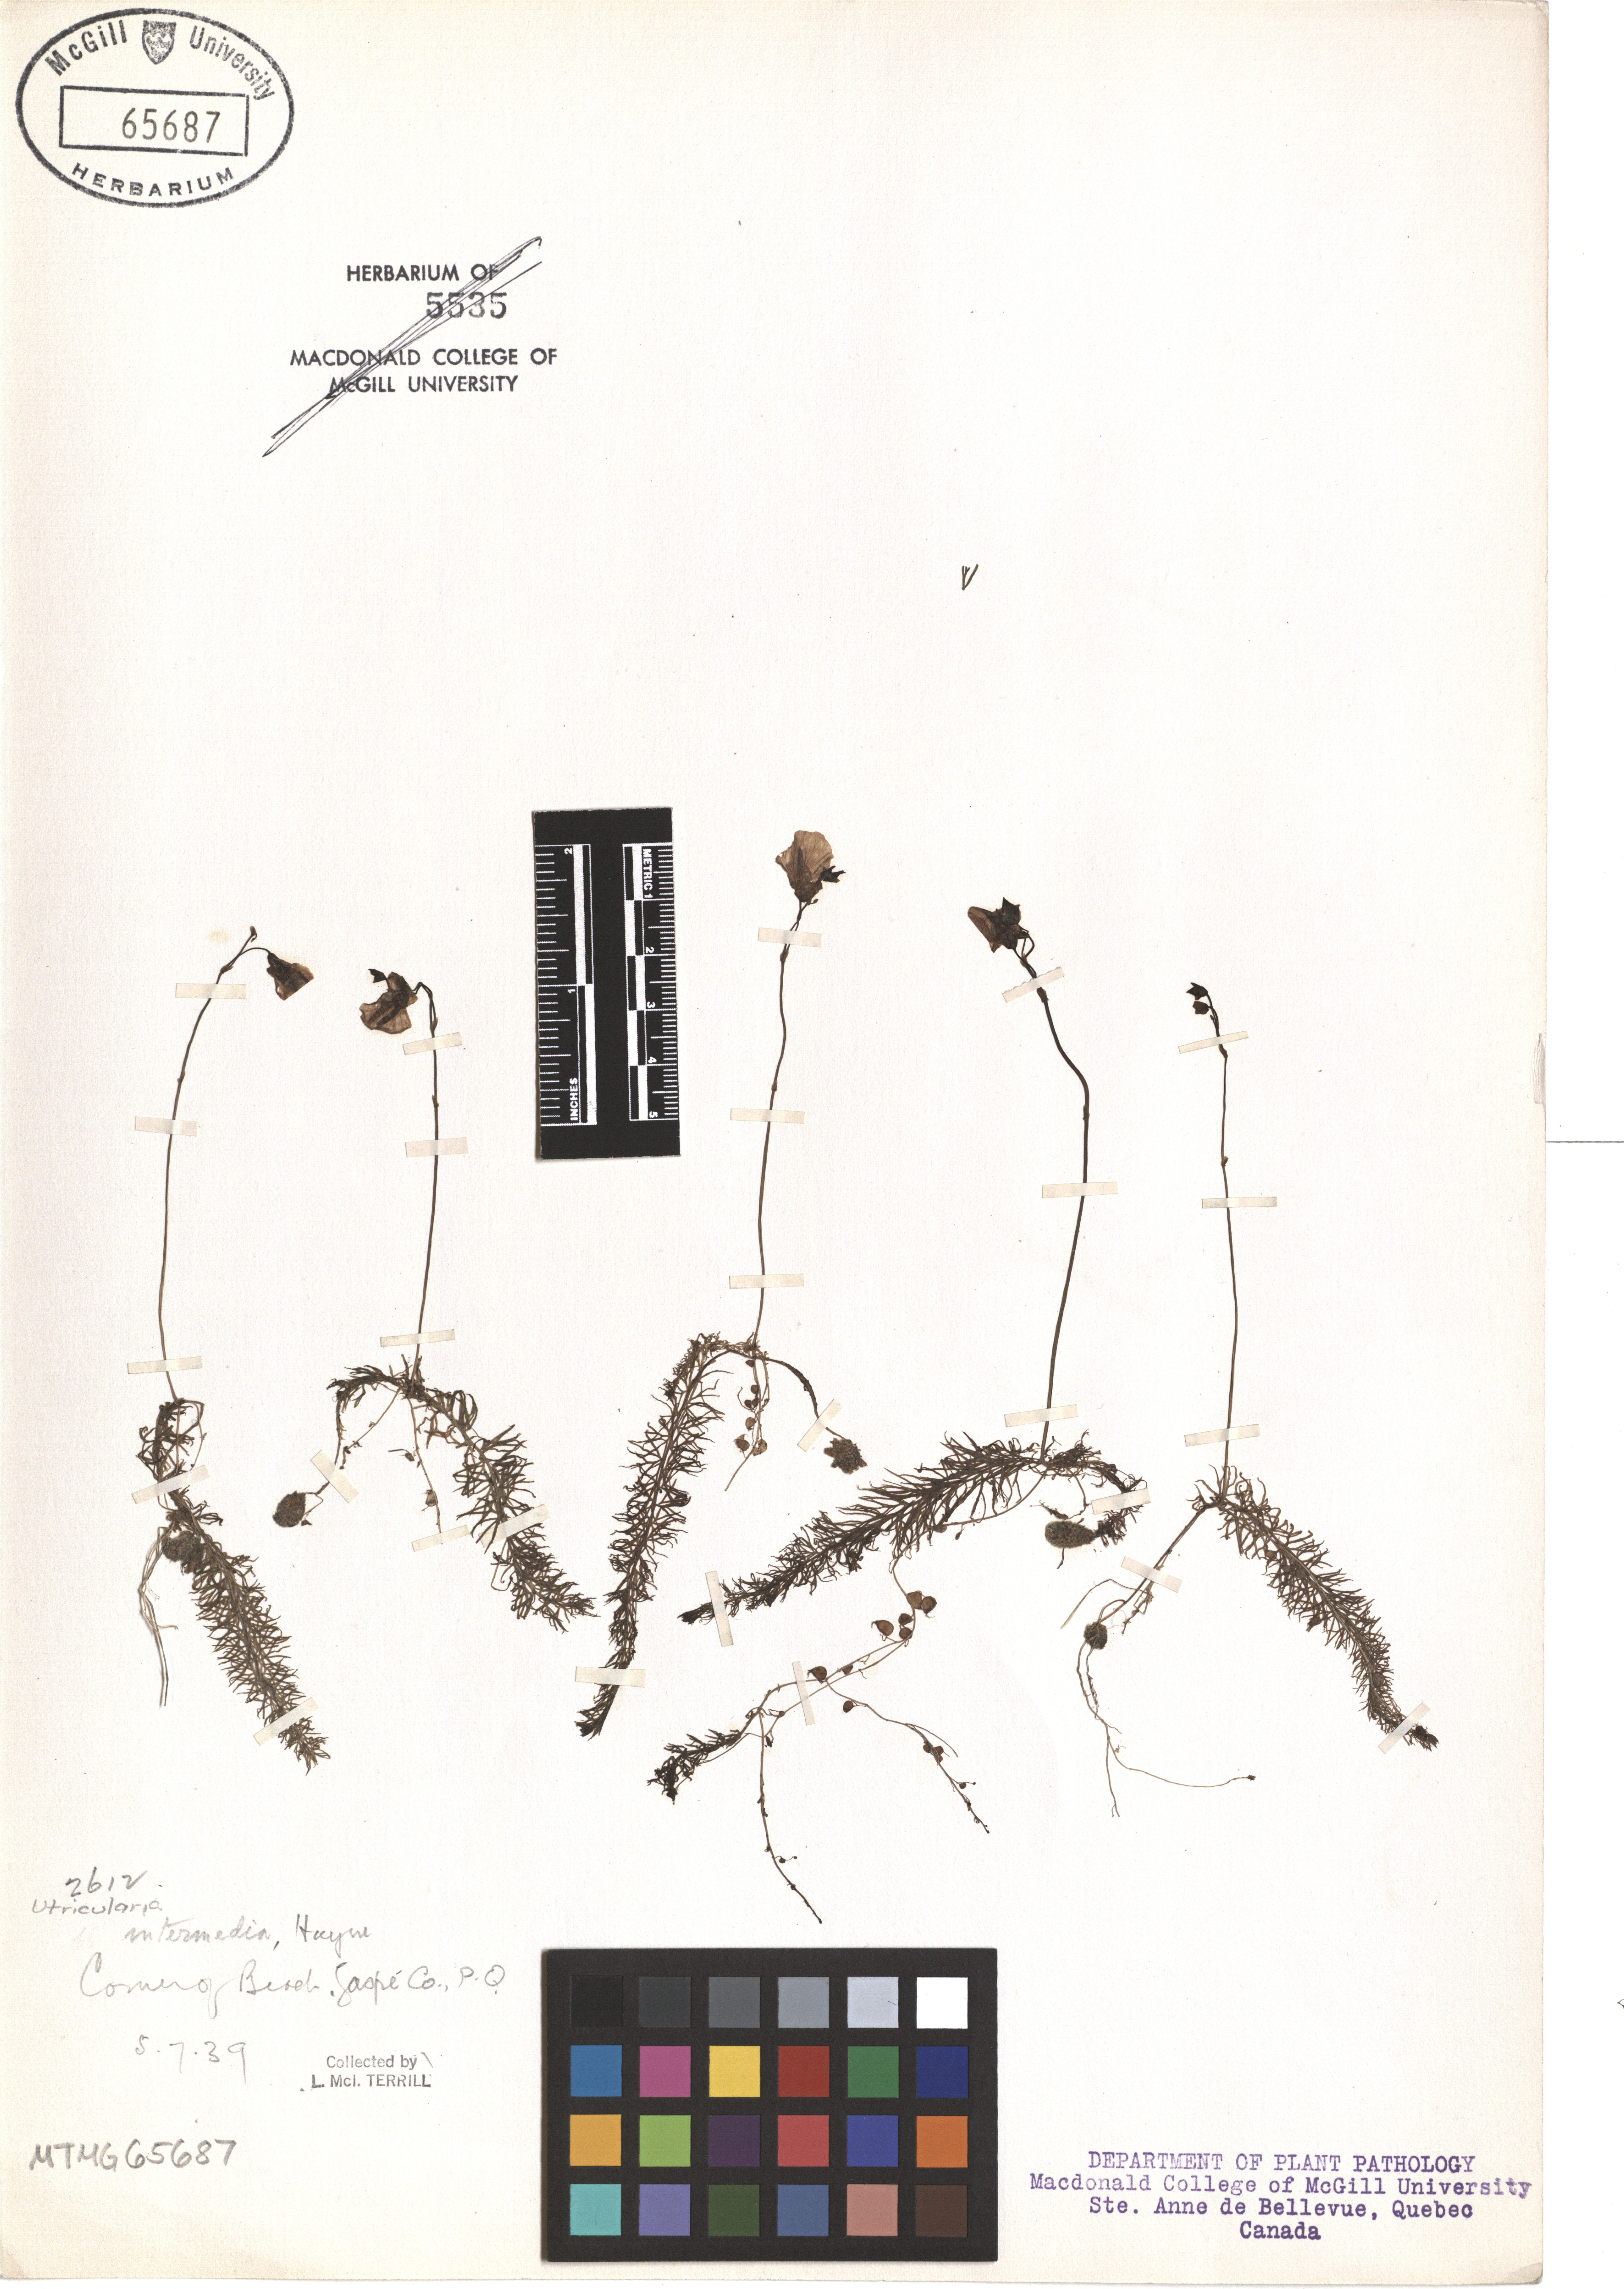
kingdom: Plantae
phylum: Tracheophyta
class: Magnoliopsida
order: Lamiales
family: Lentibulariaceae
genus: Utricularia
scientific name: Utricularia intermedia
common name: Intermediate bladderwort
